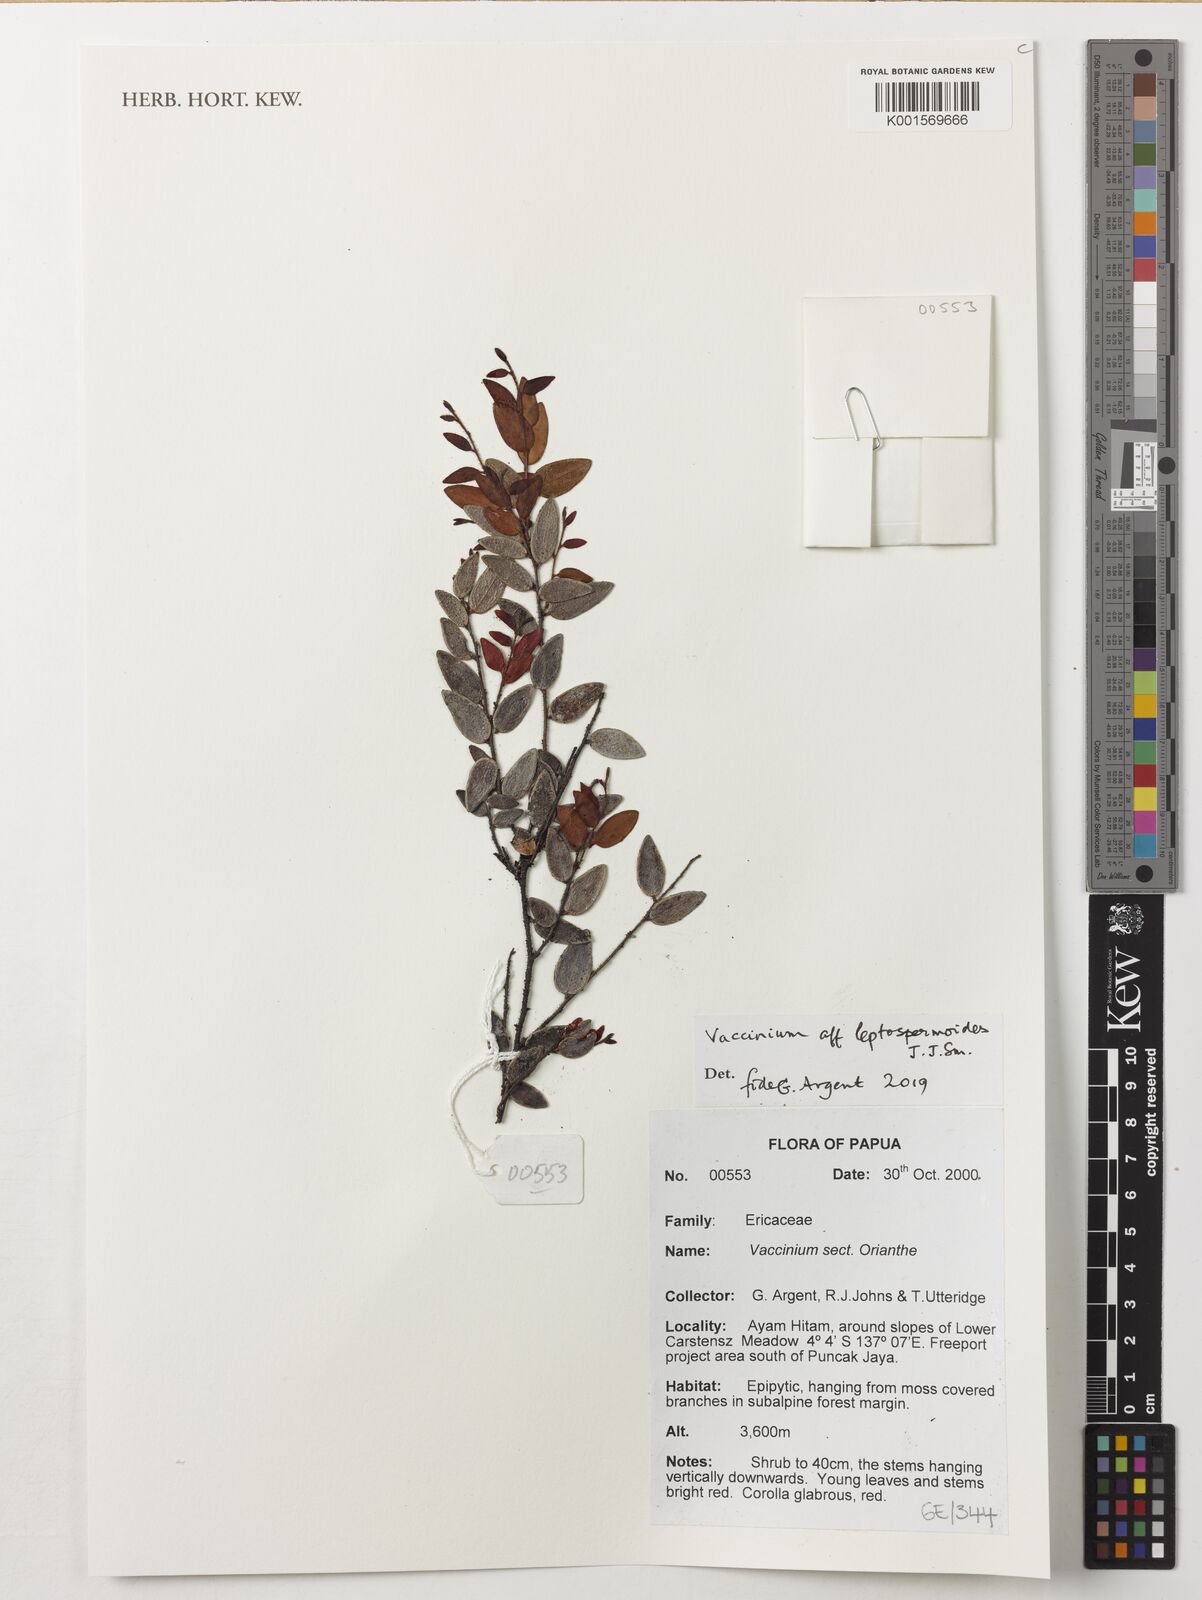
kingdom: Plantae
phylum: Tracheophyta
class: Magnoliopsida
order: Ericales
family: Ericaceae
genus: Vaccinium
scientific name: Vaccinium leptospermoides
